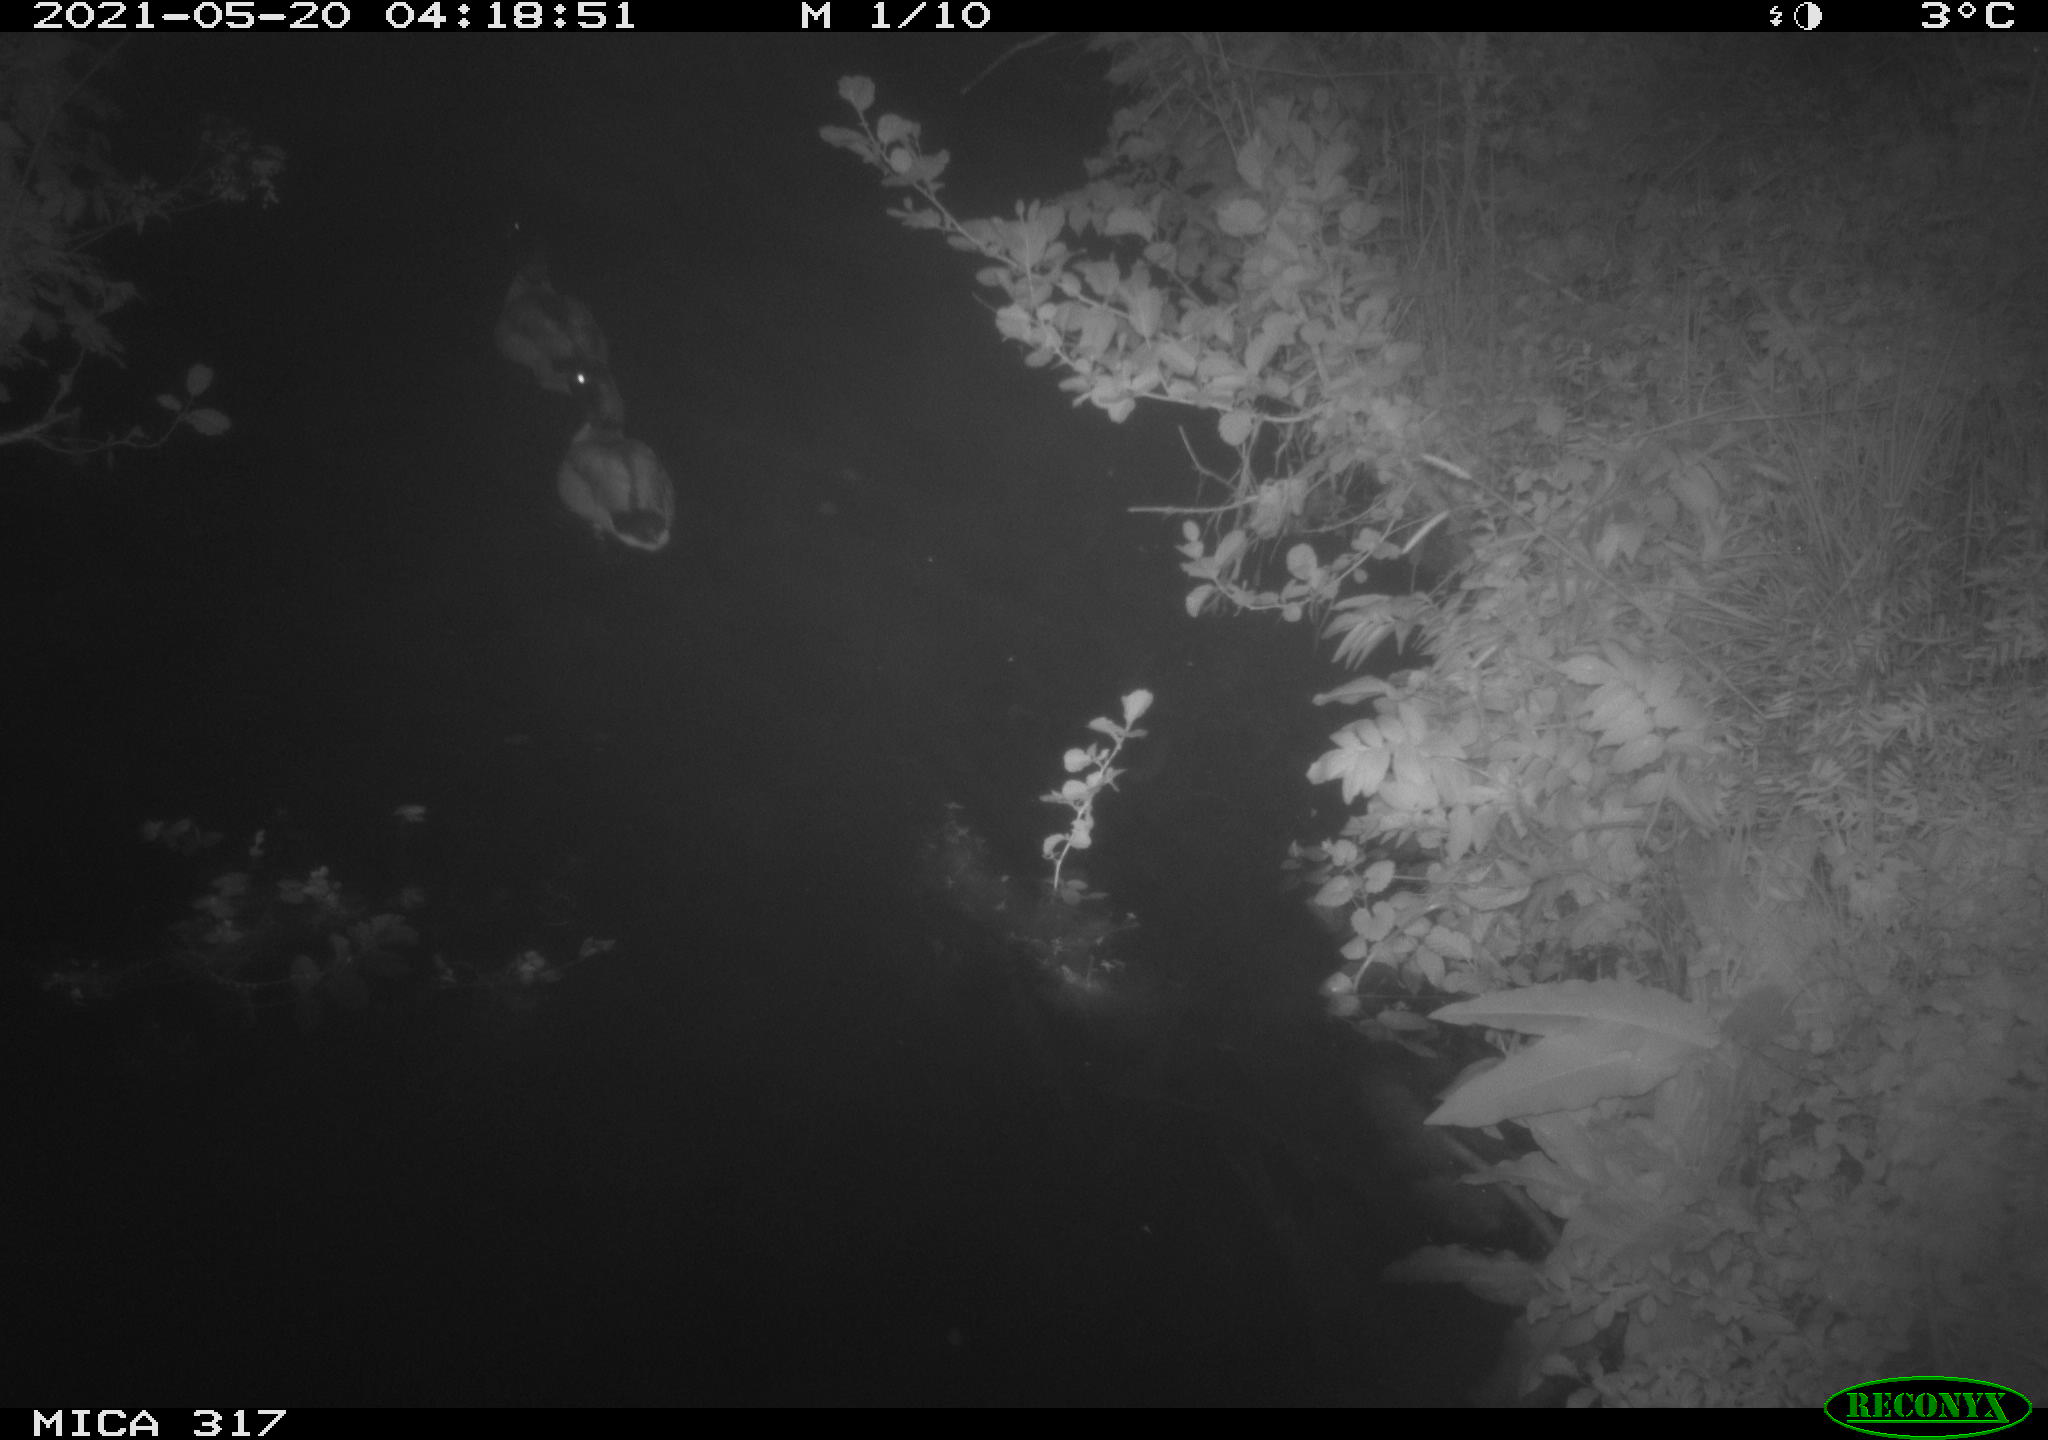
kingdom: Animalia
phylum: Chordata
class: Aves
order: Anseriformes
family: Anatidae
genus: Anas
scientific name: Anas
